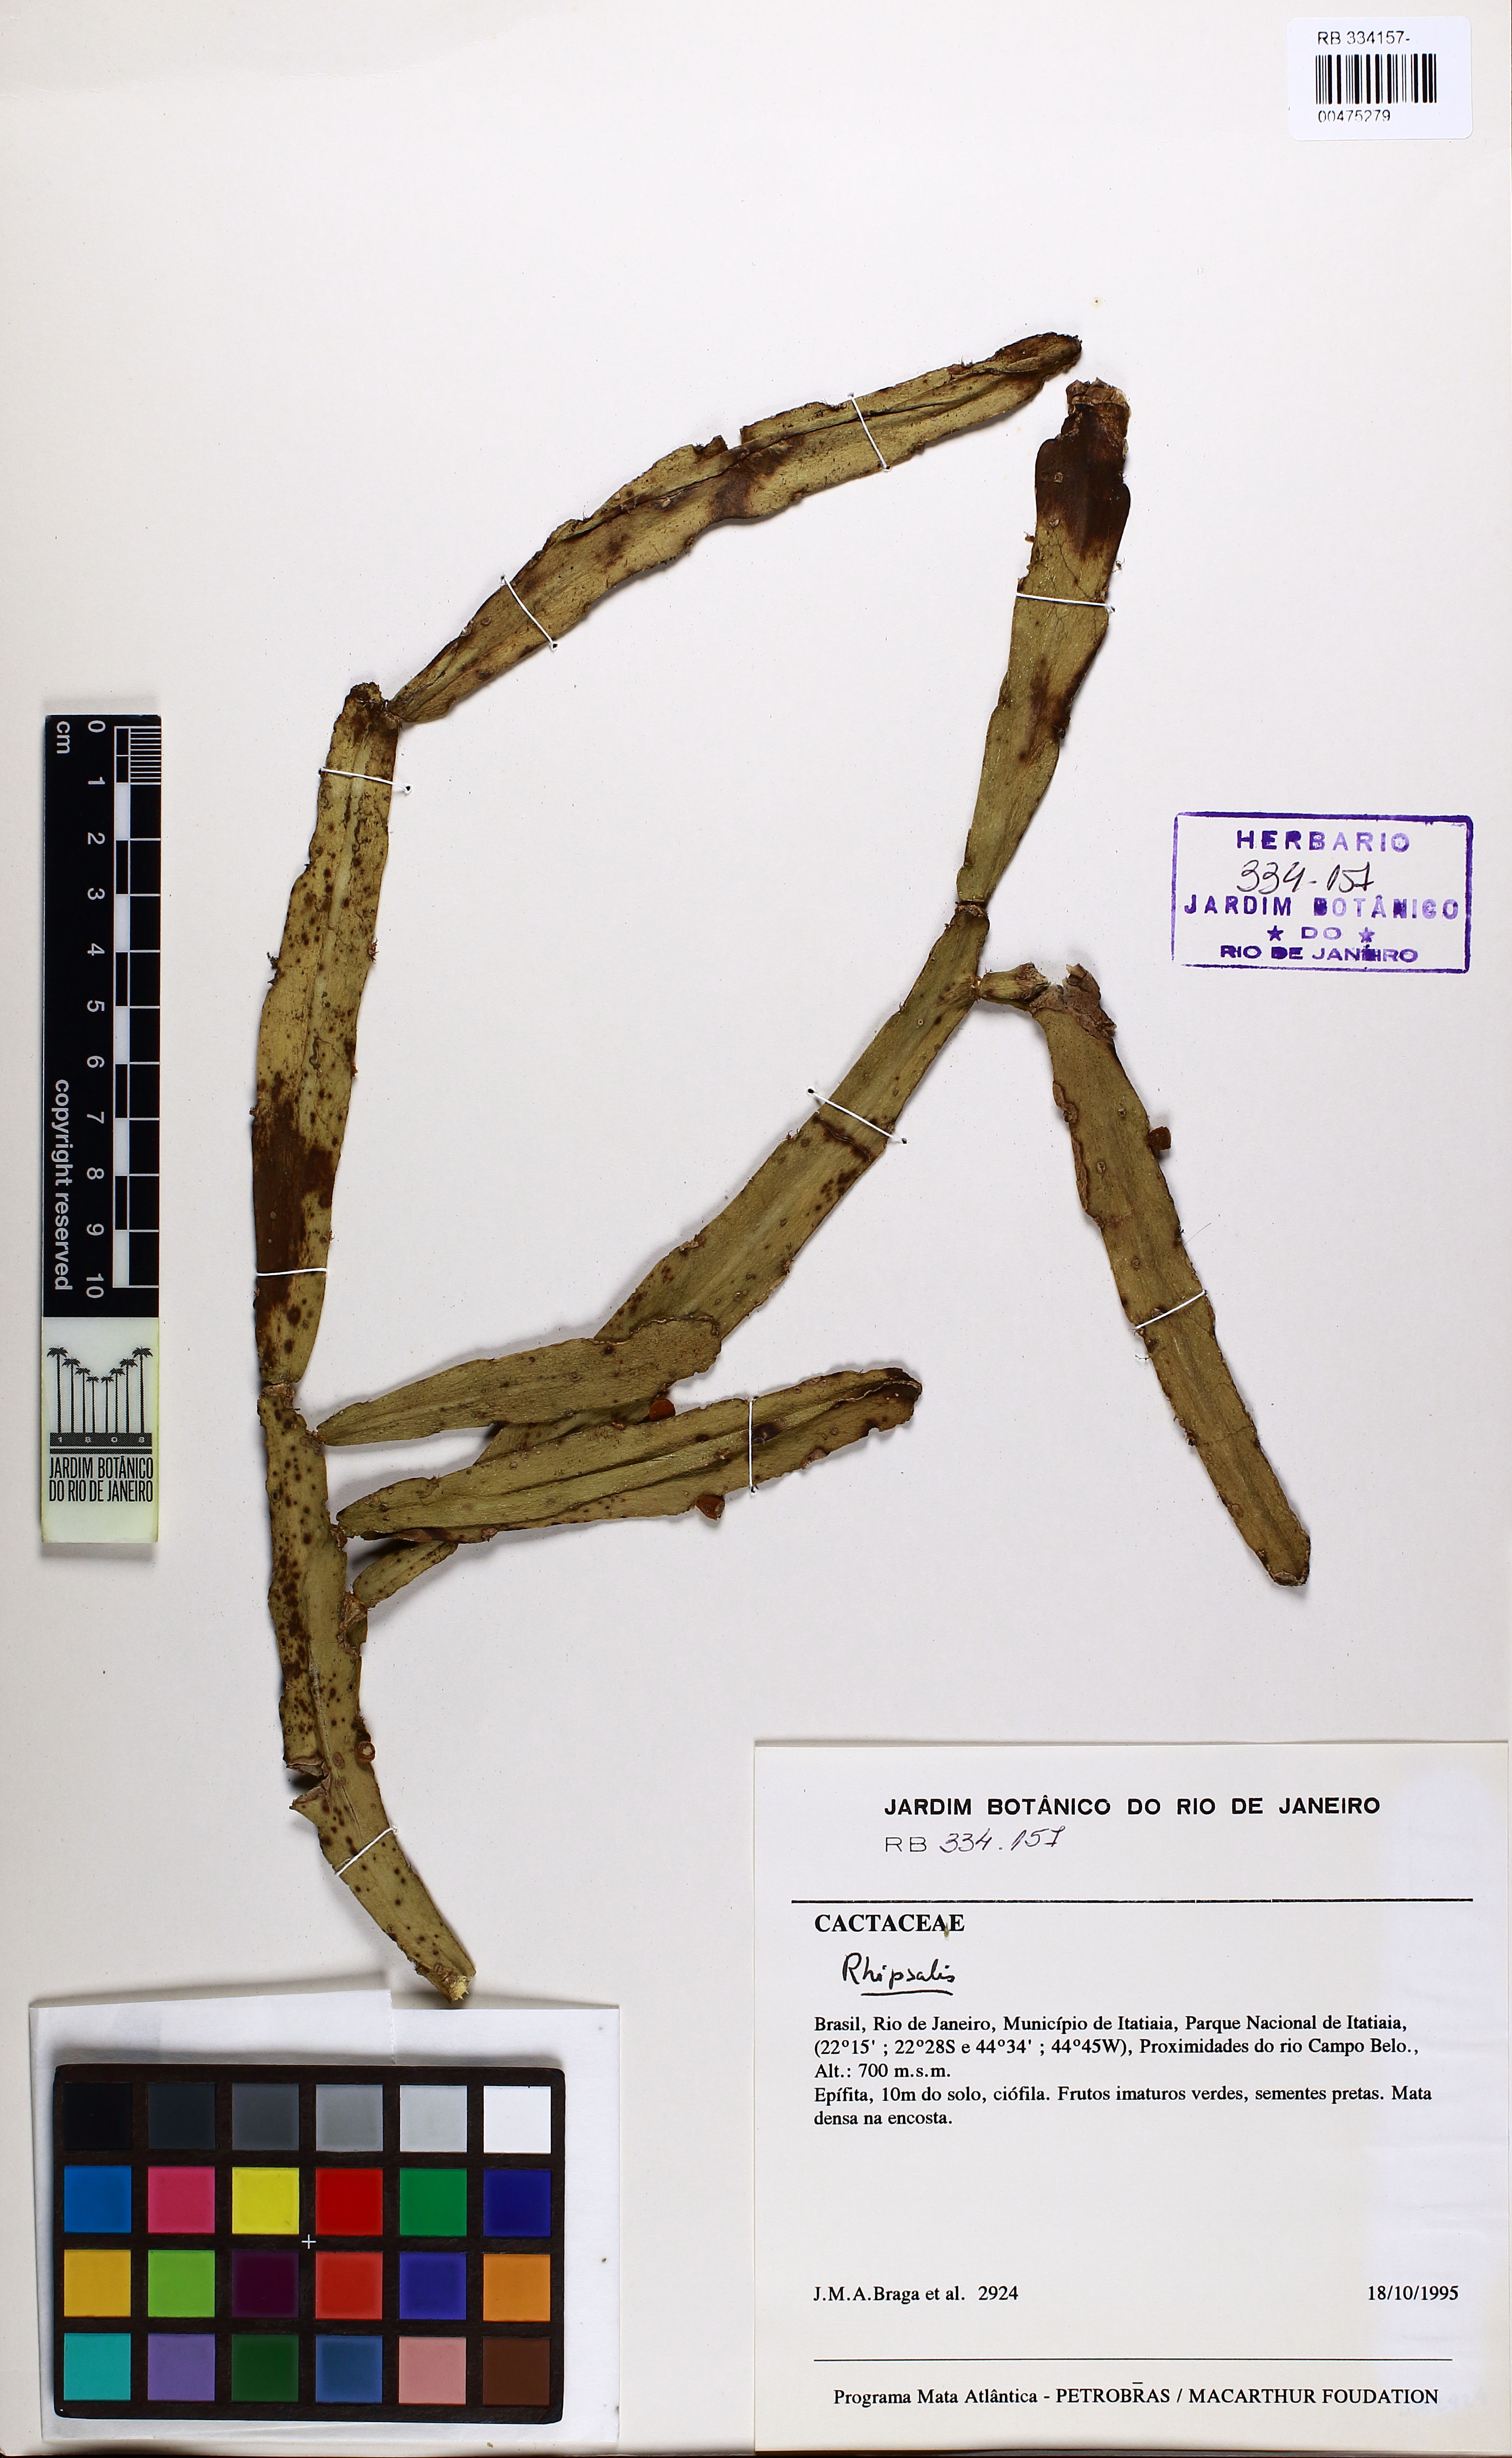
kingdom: Plantae
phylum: Tracheophyta
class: Magnoliopsida
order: Caryophyllales
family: Cactaceae
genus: Rhipsalis
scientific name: Rhipsalis agudoensis
